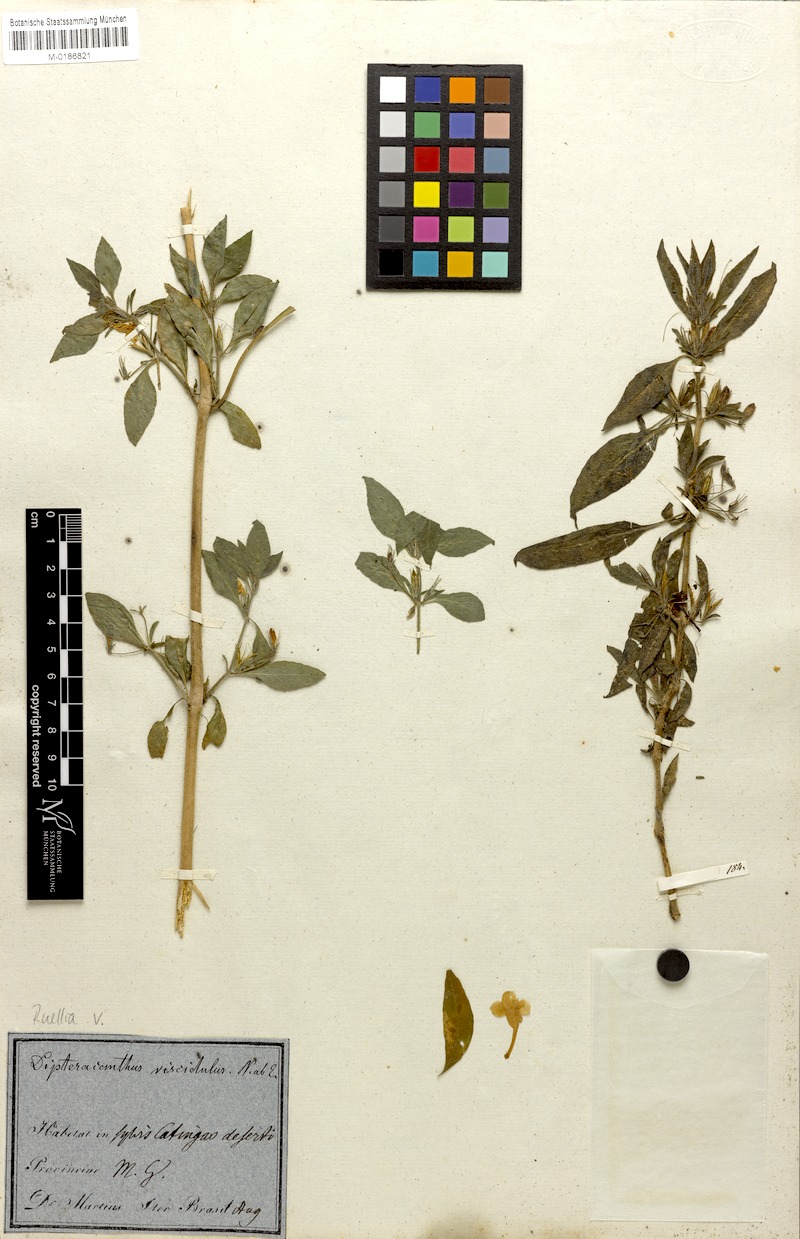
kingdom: Plantae
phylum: Tracheophyta
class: Magnoliopsida
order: Lamiales
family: Acanthaceae
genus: Ruellia
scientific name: Ruellia viscidula
